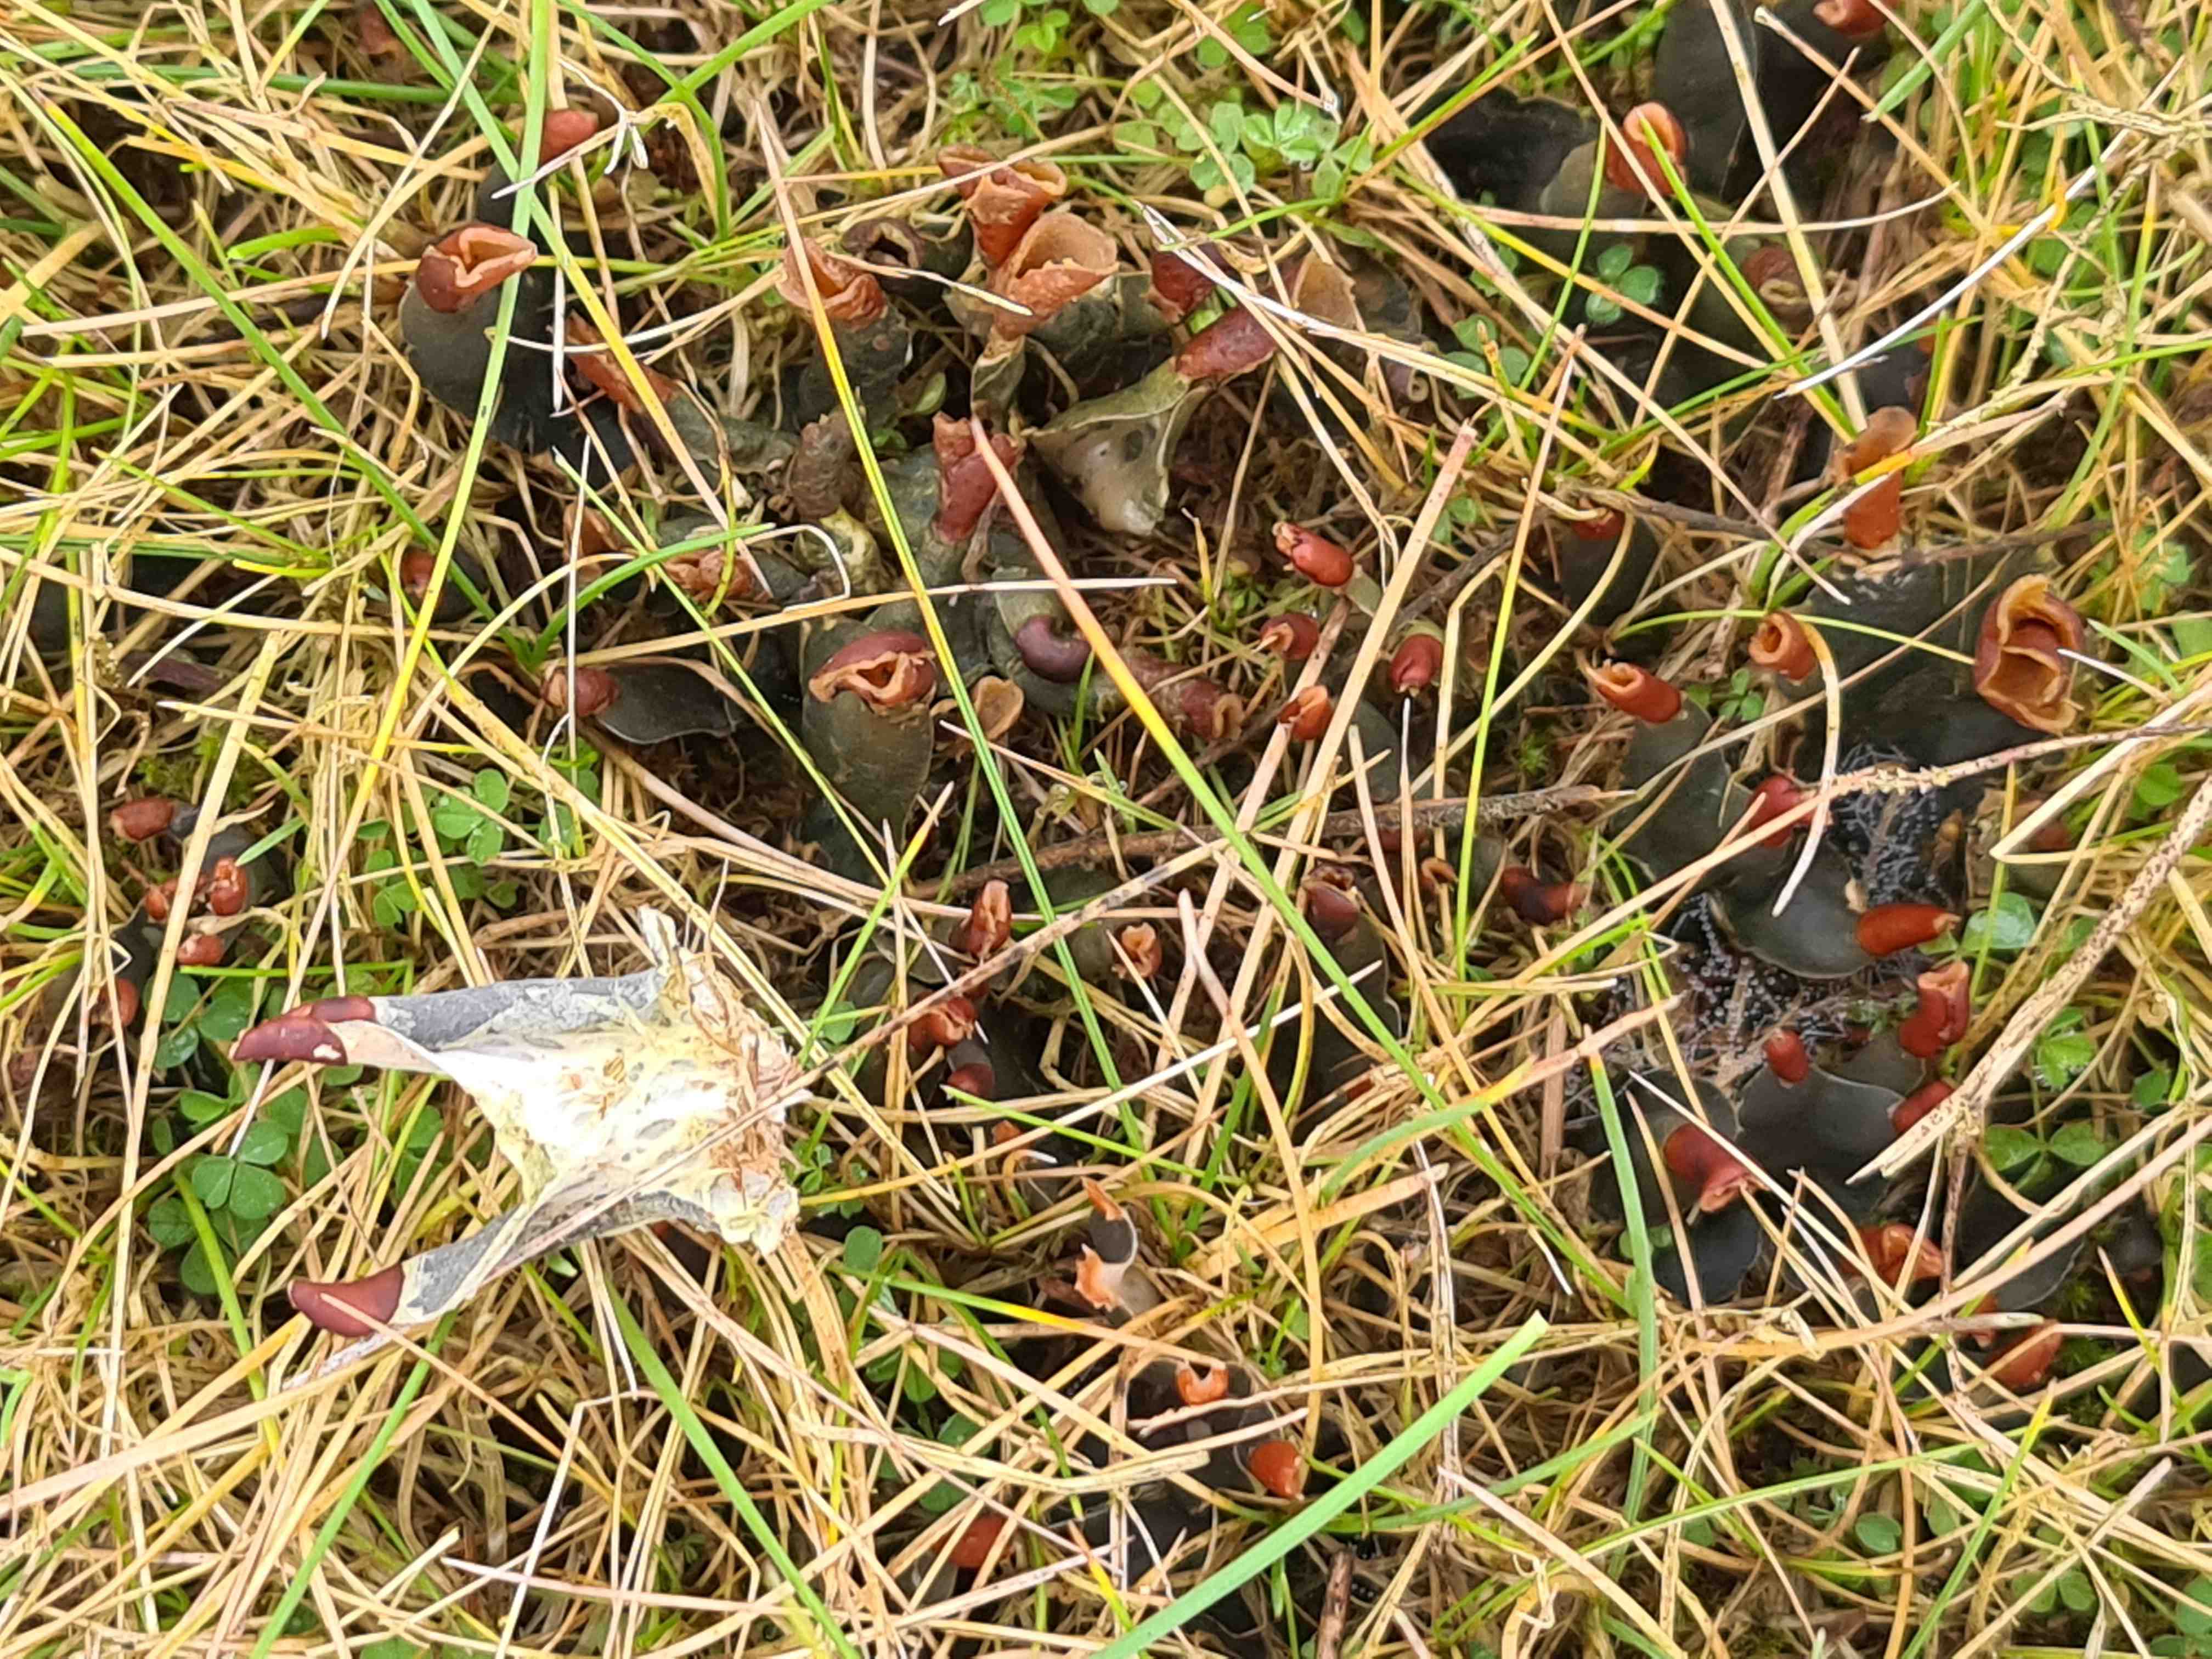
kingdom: Fungi
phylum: Ascomycota
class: Lecanoromycetes
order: Peltigerales
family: Peltigeraceae
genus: Peltigera
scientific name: Peltigera
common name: skjoldlav
